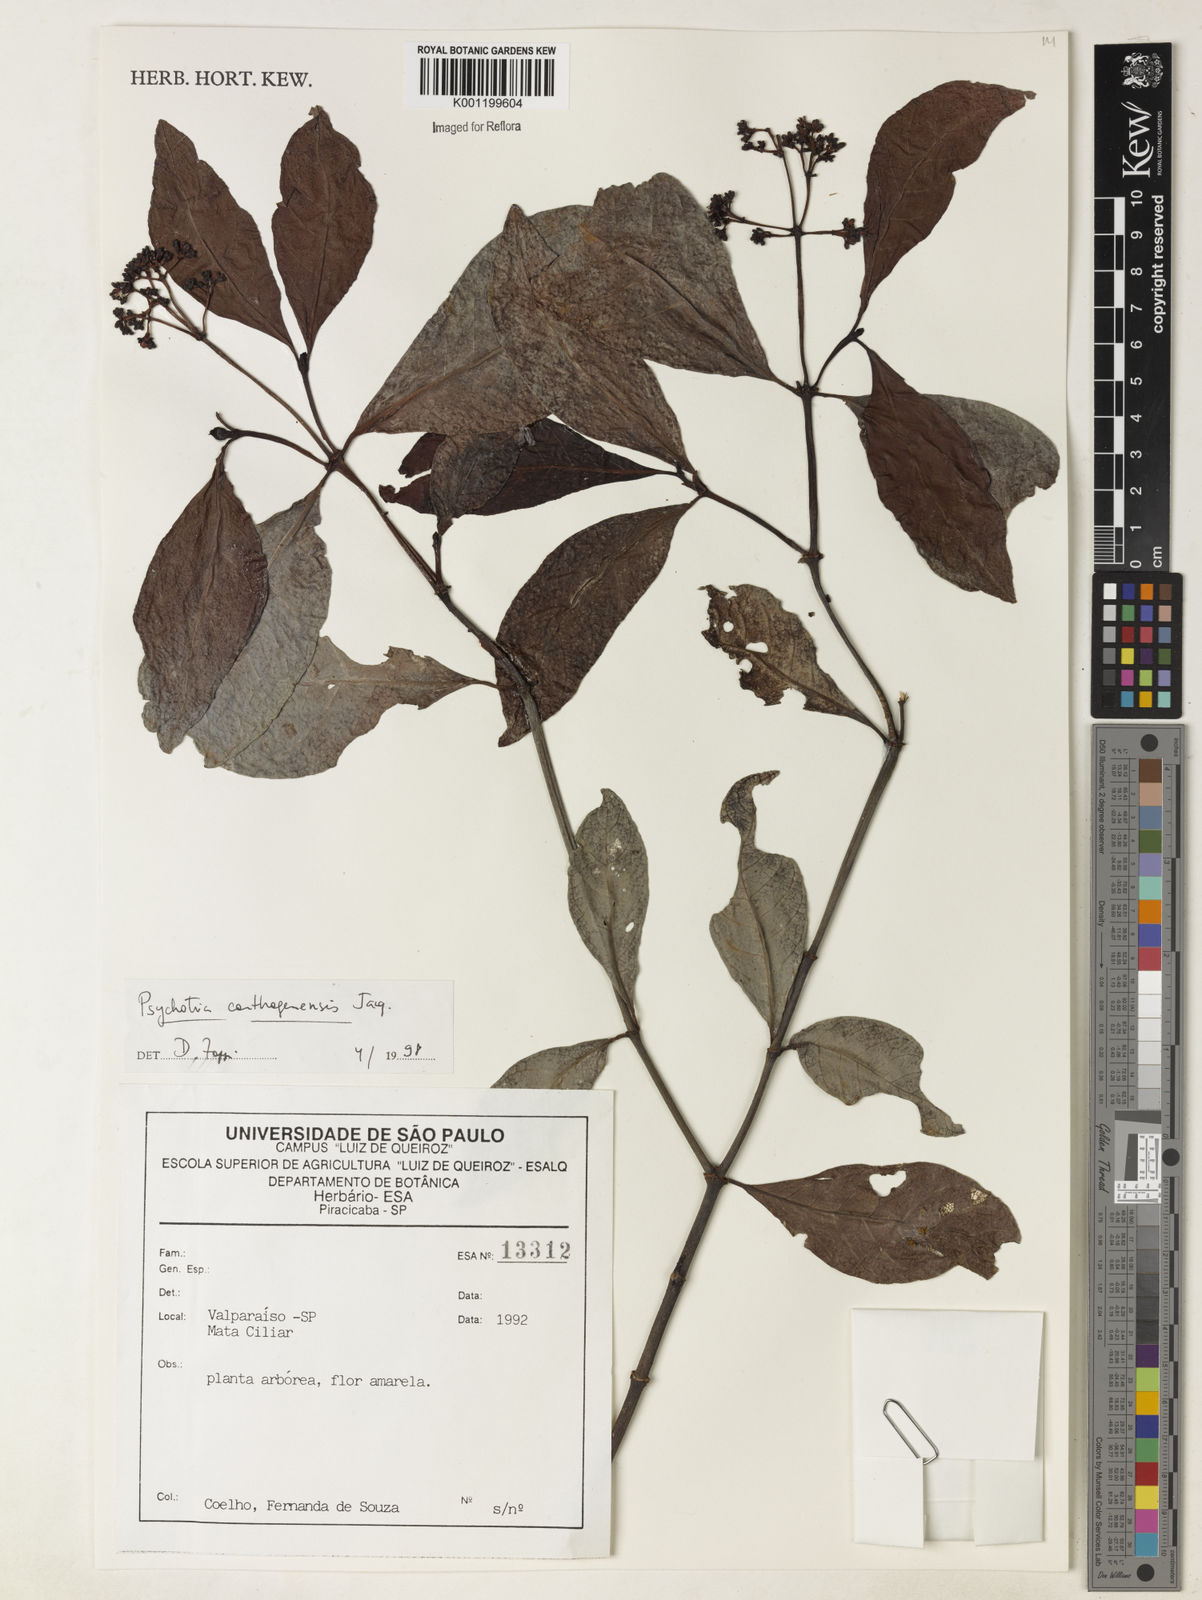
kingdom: Plantae
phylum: Tracheophyta
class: Magnoliopsida
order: Gentianales
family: Rubiaceae
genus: Psychotria
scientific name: Psychotria carthagenensis
